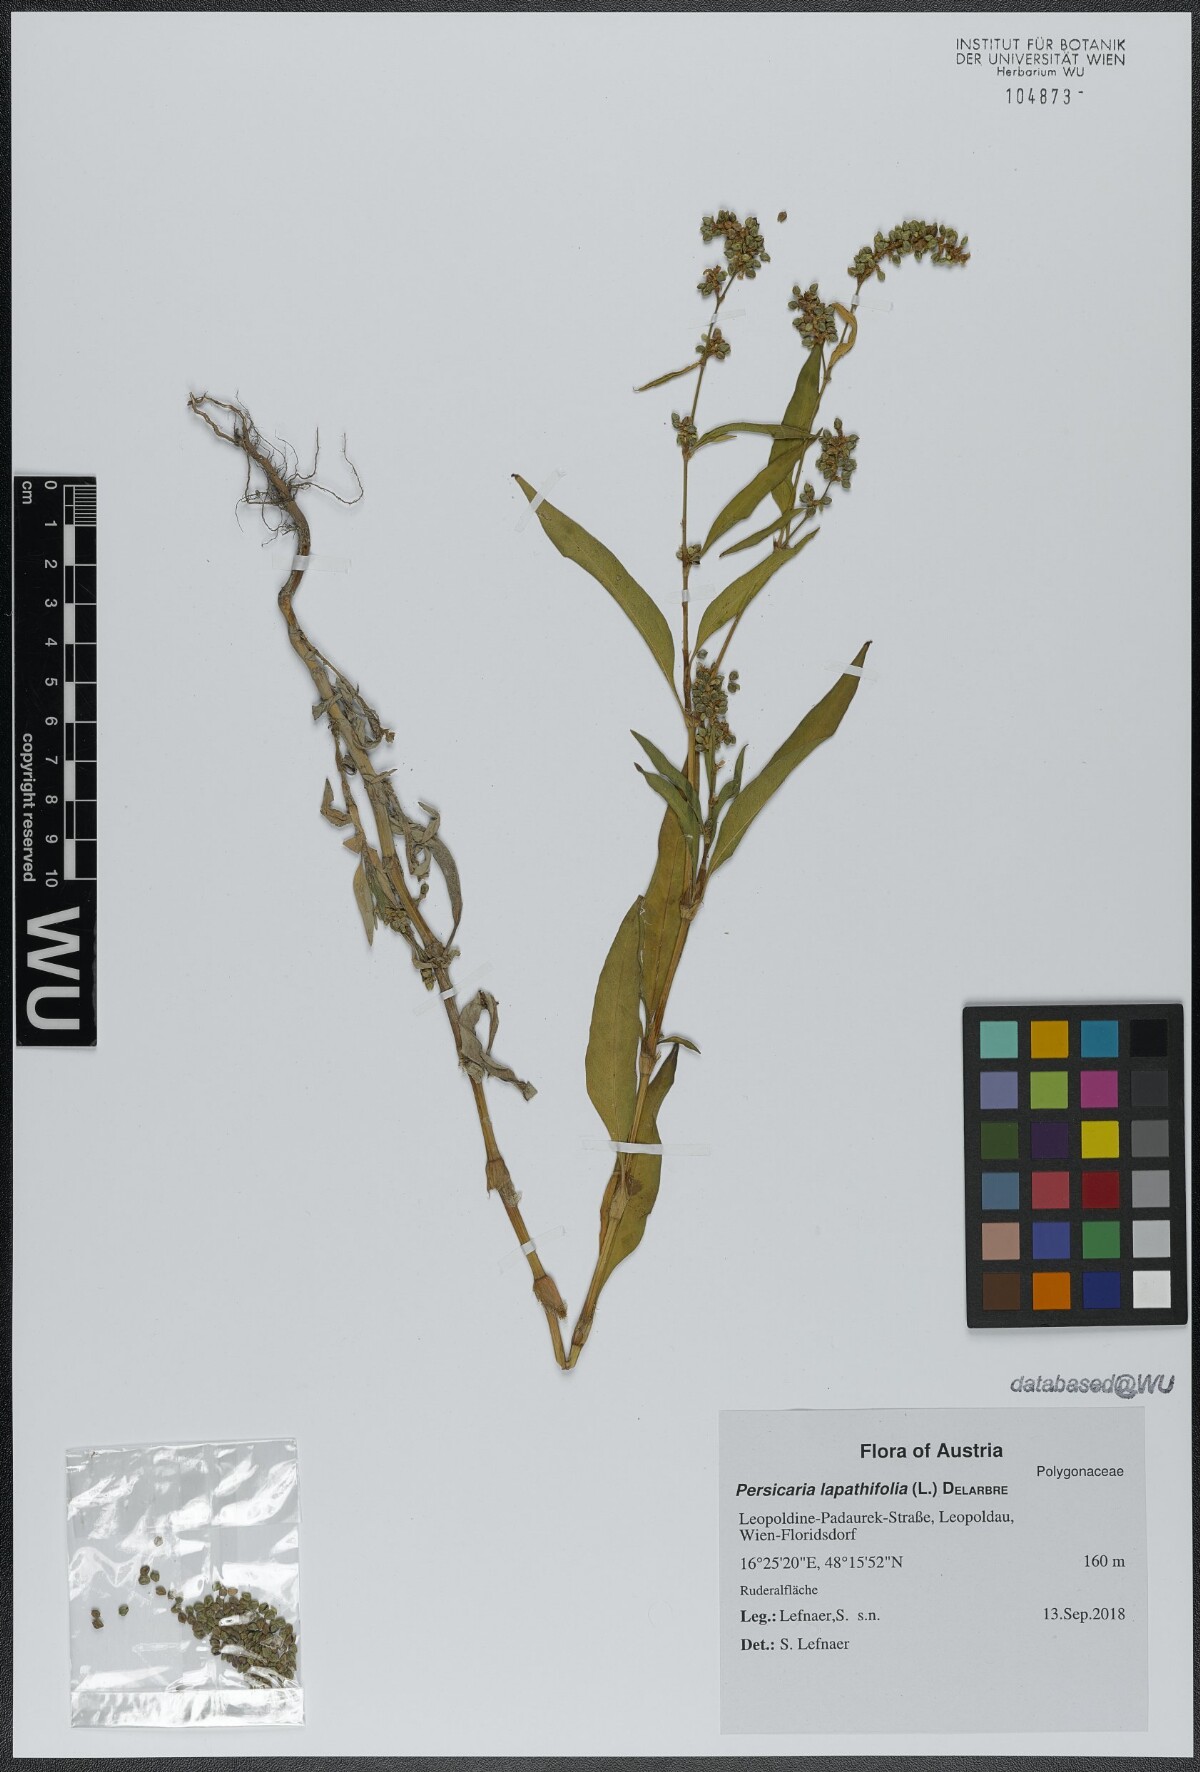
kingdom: Plantae
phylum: Tracheophyta
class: Magnoliopsida
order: Caryophyllales
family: Polygonaceae
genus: Persicaria
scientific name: Persicaria lapathifolia
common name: Curlytop knotweed
